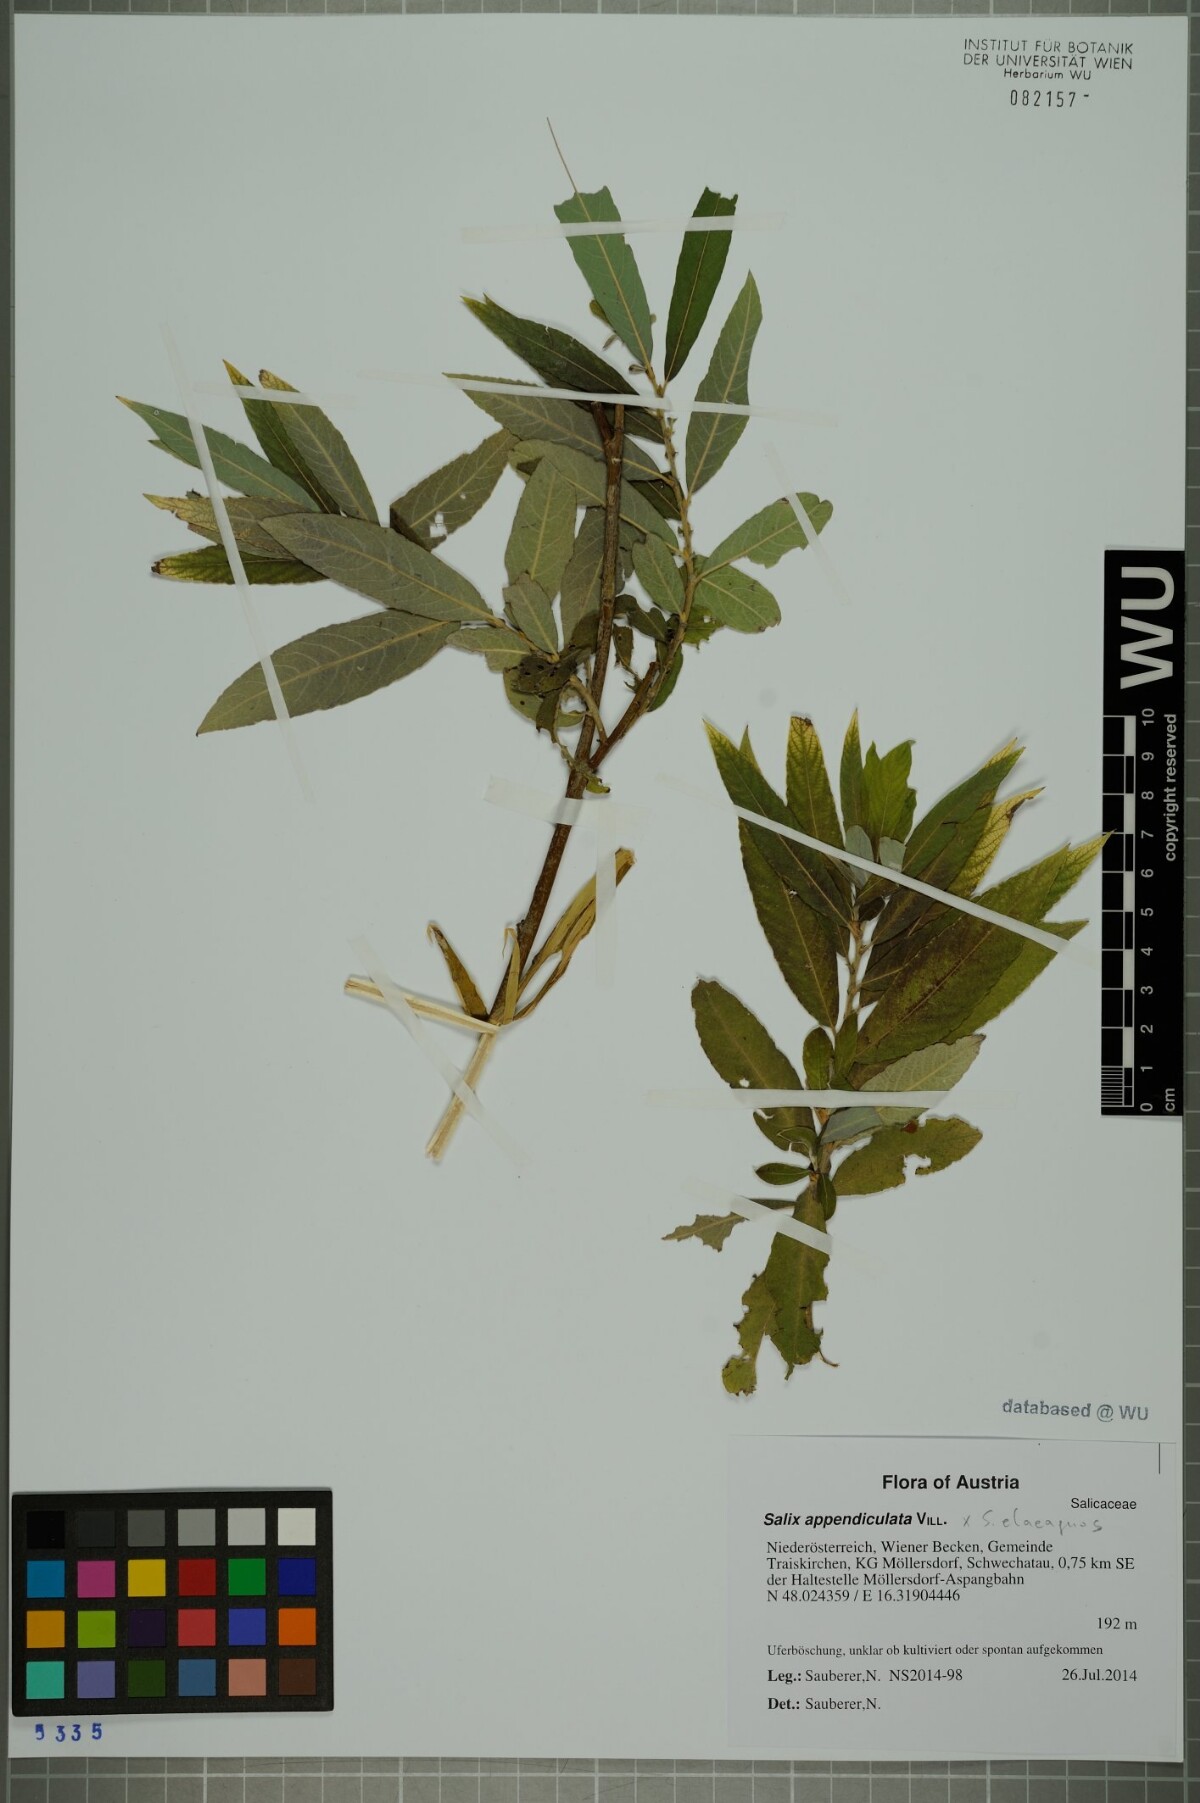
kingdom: Plantae
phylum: Tracheophyta
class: Magnoliopsida
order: Malpighiales
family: Salicaceae
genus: Salix
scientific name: Salix appendiculata
